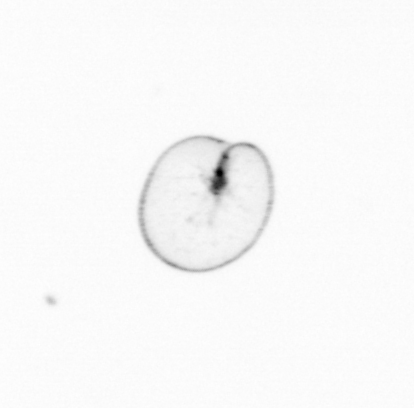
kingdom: Chromista
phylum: Myzozoa
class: Dinophyceae
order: Noctilucales
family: Noctilucaceae
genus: Noctiluca
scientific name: Noctiluca scintillans
